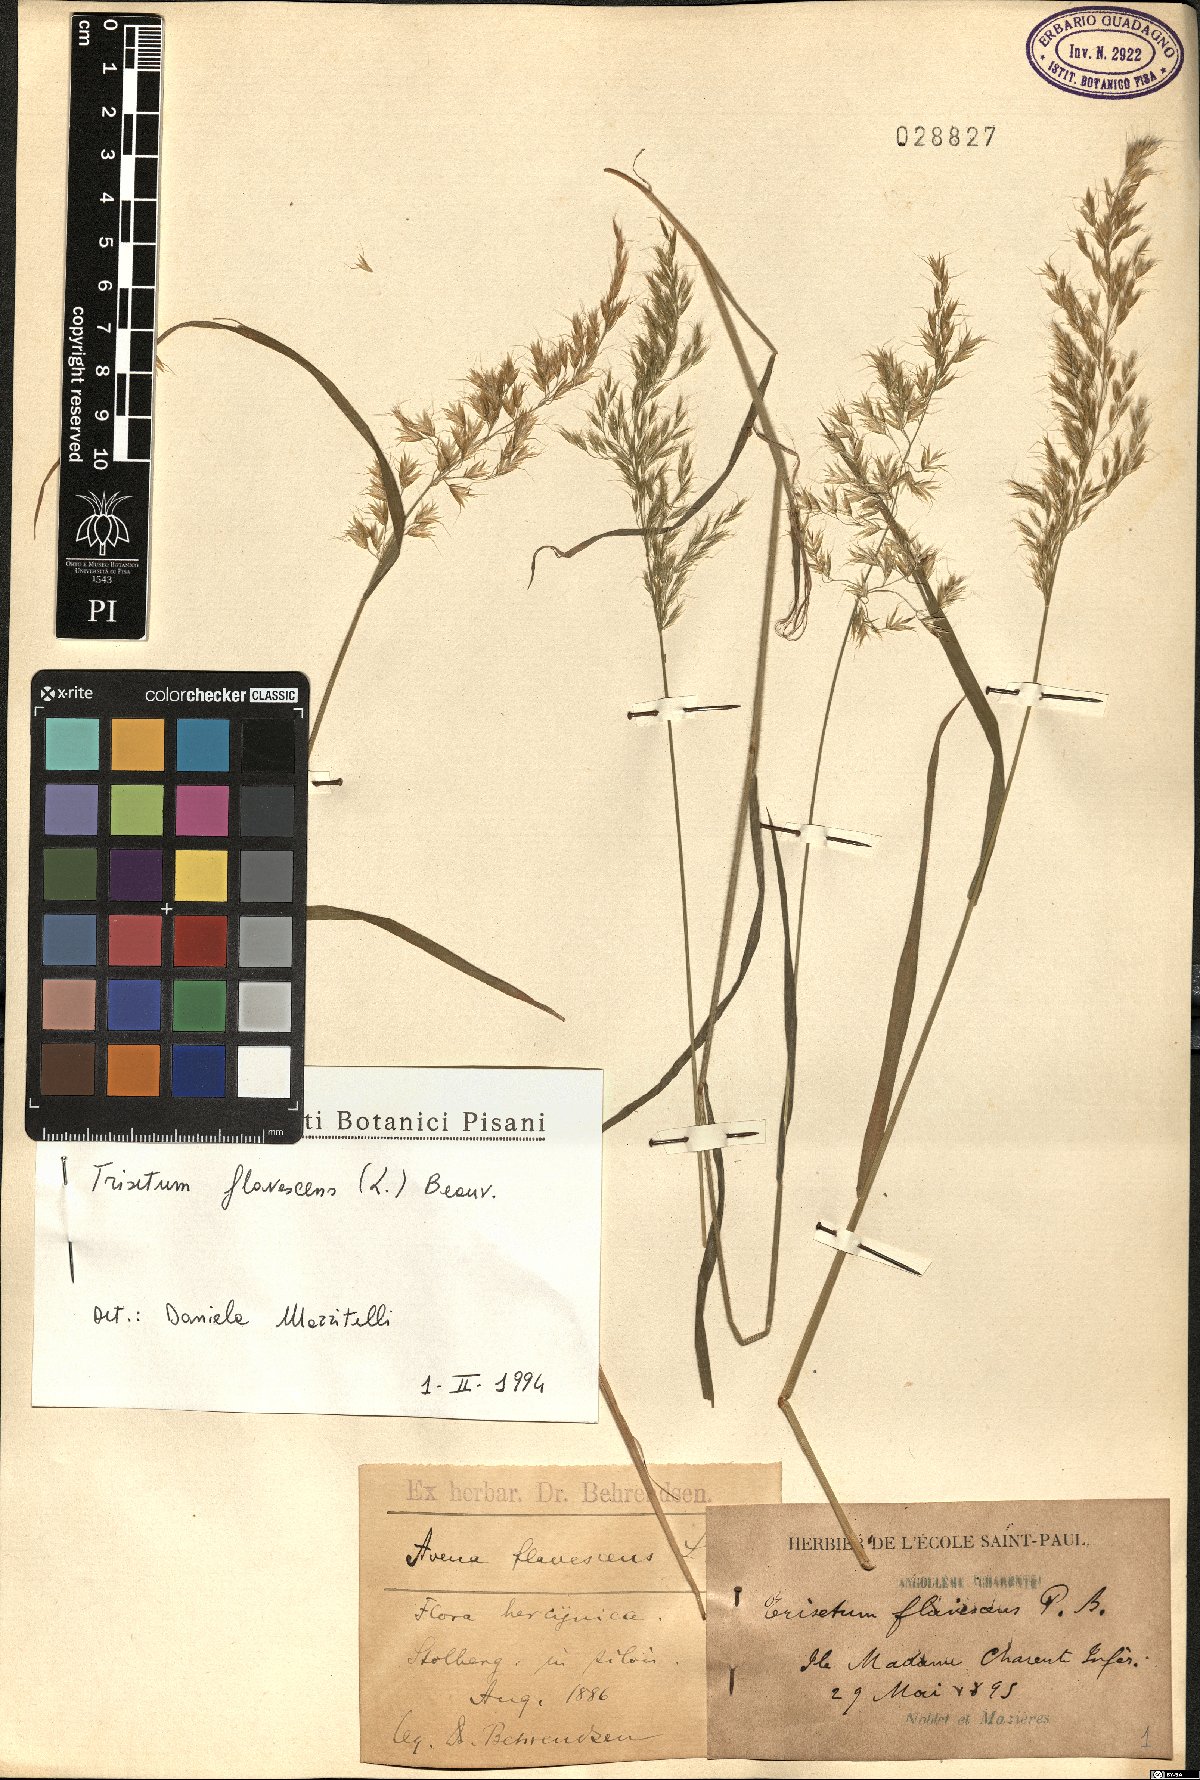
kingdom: Plantae
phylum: Tracheophyta
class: Liliopsida
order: Poales
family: Poaceae
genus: Trisetum
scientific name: Trisetum flavescens
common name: Yellow oat-grass
